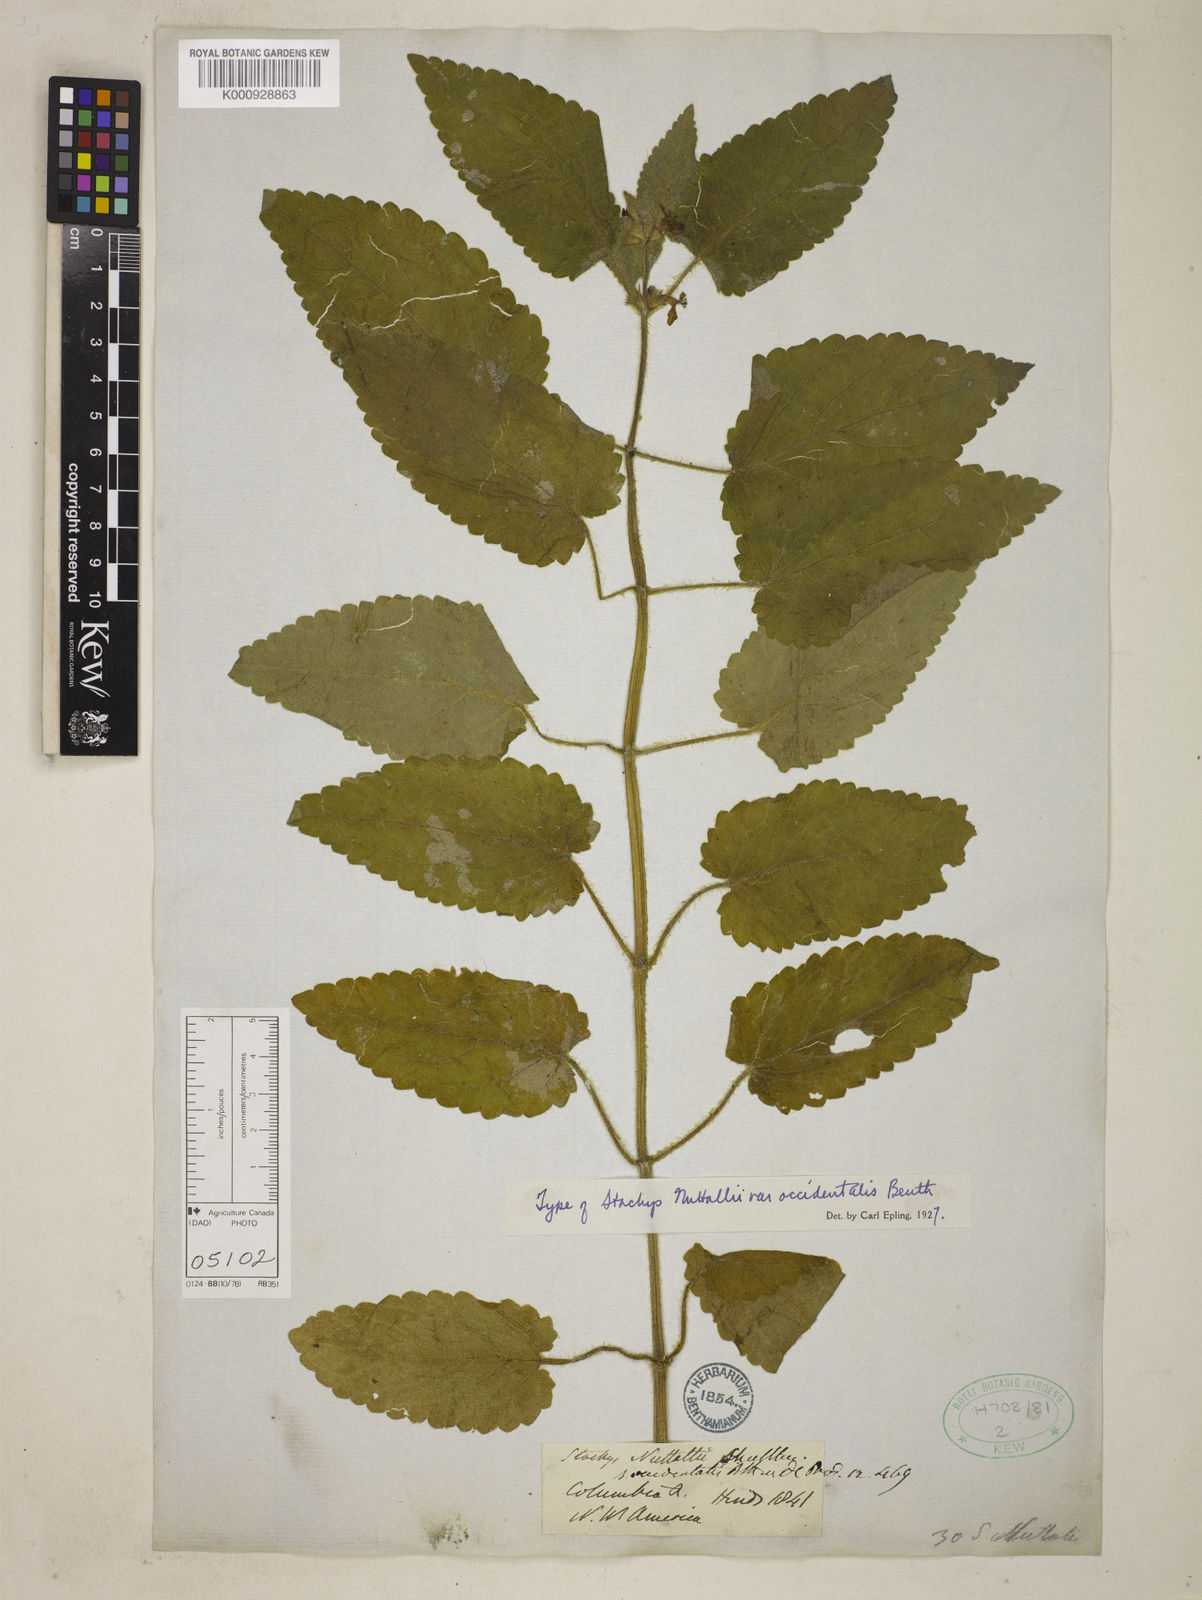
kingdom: Plantae
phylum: Tracheophyta
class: Magnoliopsida
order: Lamiales
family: Lamiaceae
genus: Stachys
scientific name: Stachys cordata
